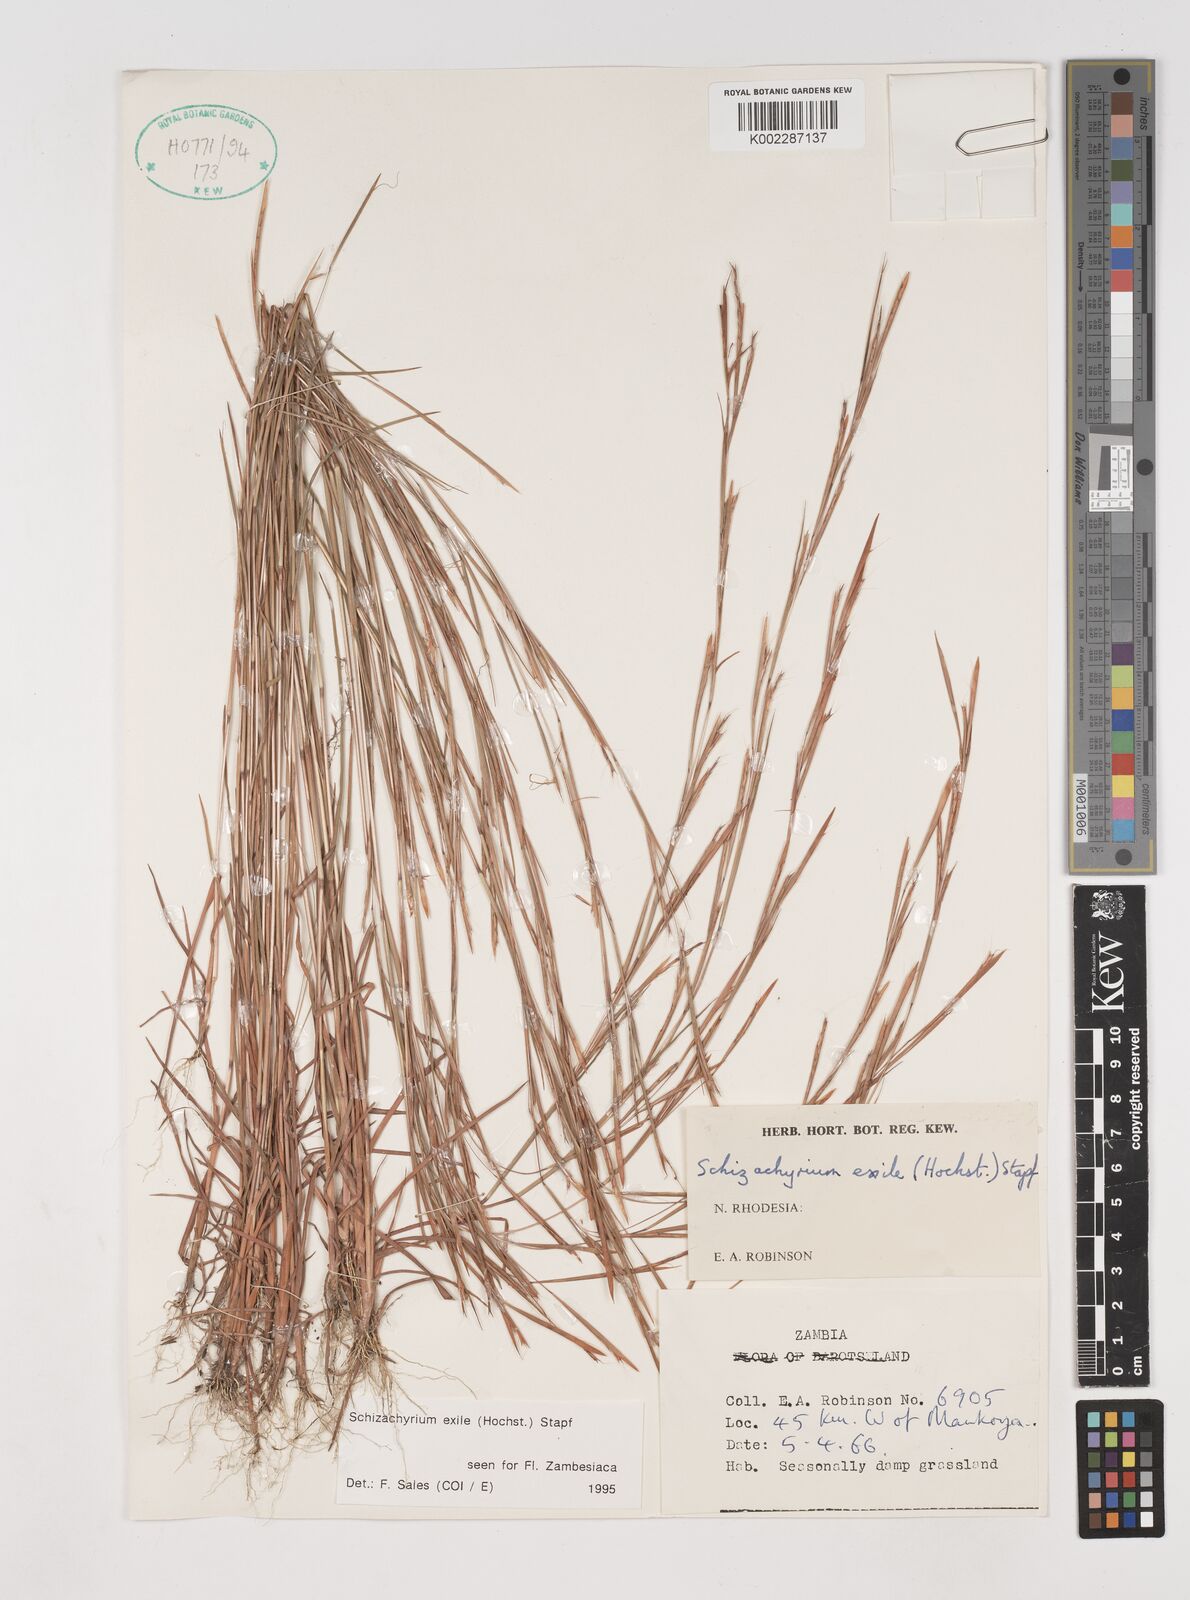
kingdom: Plantae
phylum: Tracheophyta
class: Liliopsida
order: Poales
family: Poaceae
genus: Schizachyrium
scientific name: Schizachyrium exile
